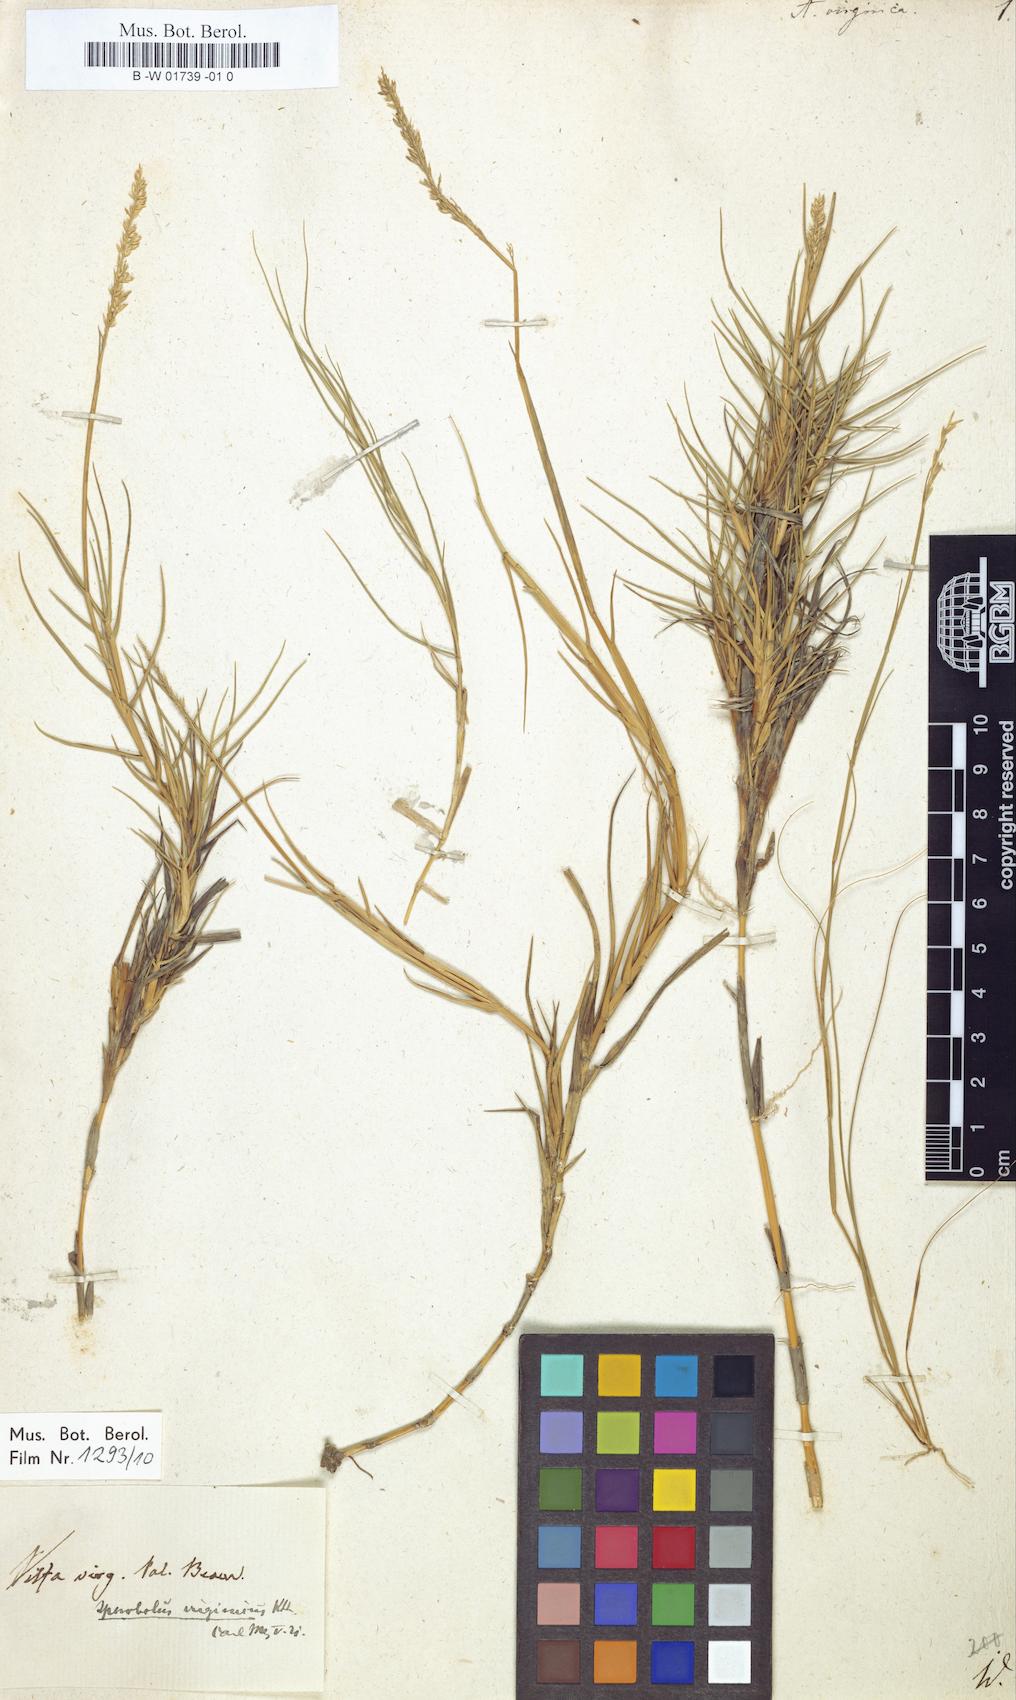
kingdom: Plantae
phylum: Tracheophyta
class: Liliopsida
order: Poales
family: Poaceae
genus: Sporobolus
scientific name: Sporobolus virginicus
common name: Beach dropseed
